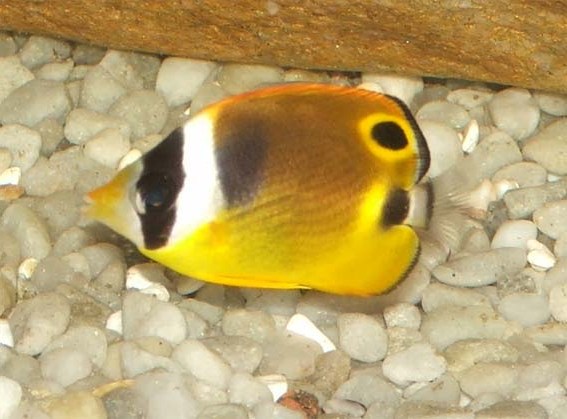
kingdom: Animalia
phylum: Chordata
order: Perciformes
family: Chaetodontidae
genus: Chaetodon
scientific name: Chaetodon lunula
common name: Raccoon butterflyfish
